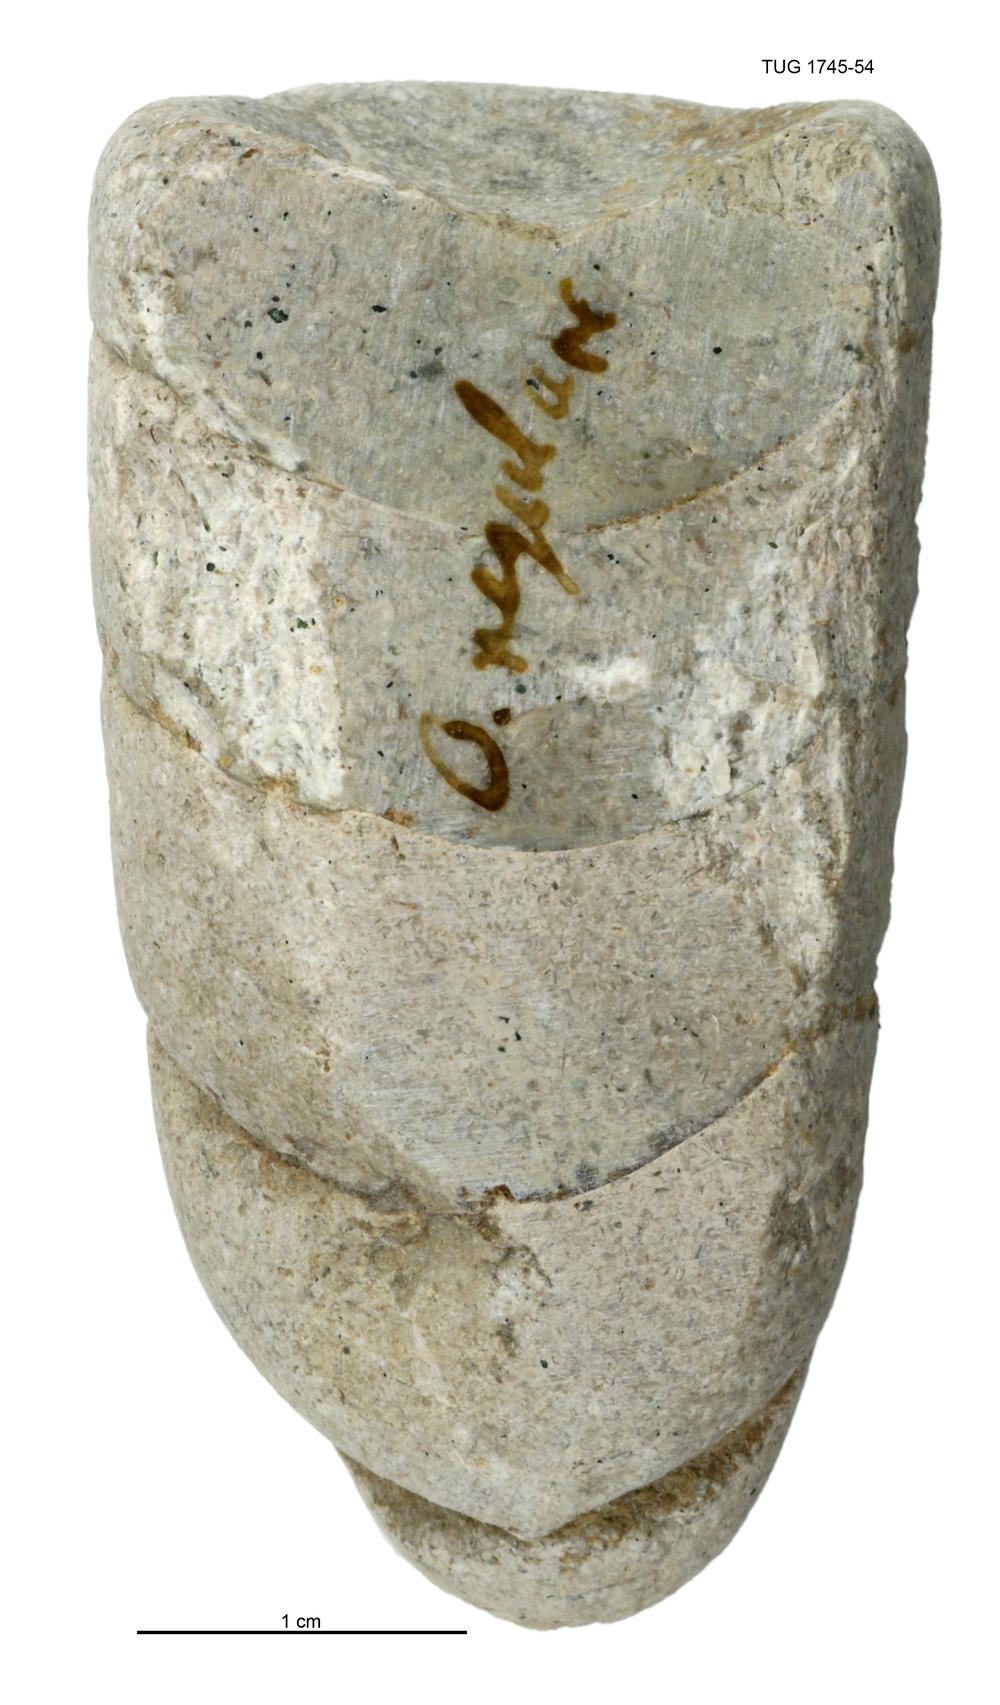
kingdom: Animalia
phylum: Mollusca
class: Cephalopoda
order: Orthocerida
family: Orthoceratidae
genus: Orthoceras
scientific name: Orthoceras regulare
